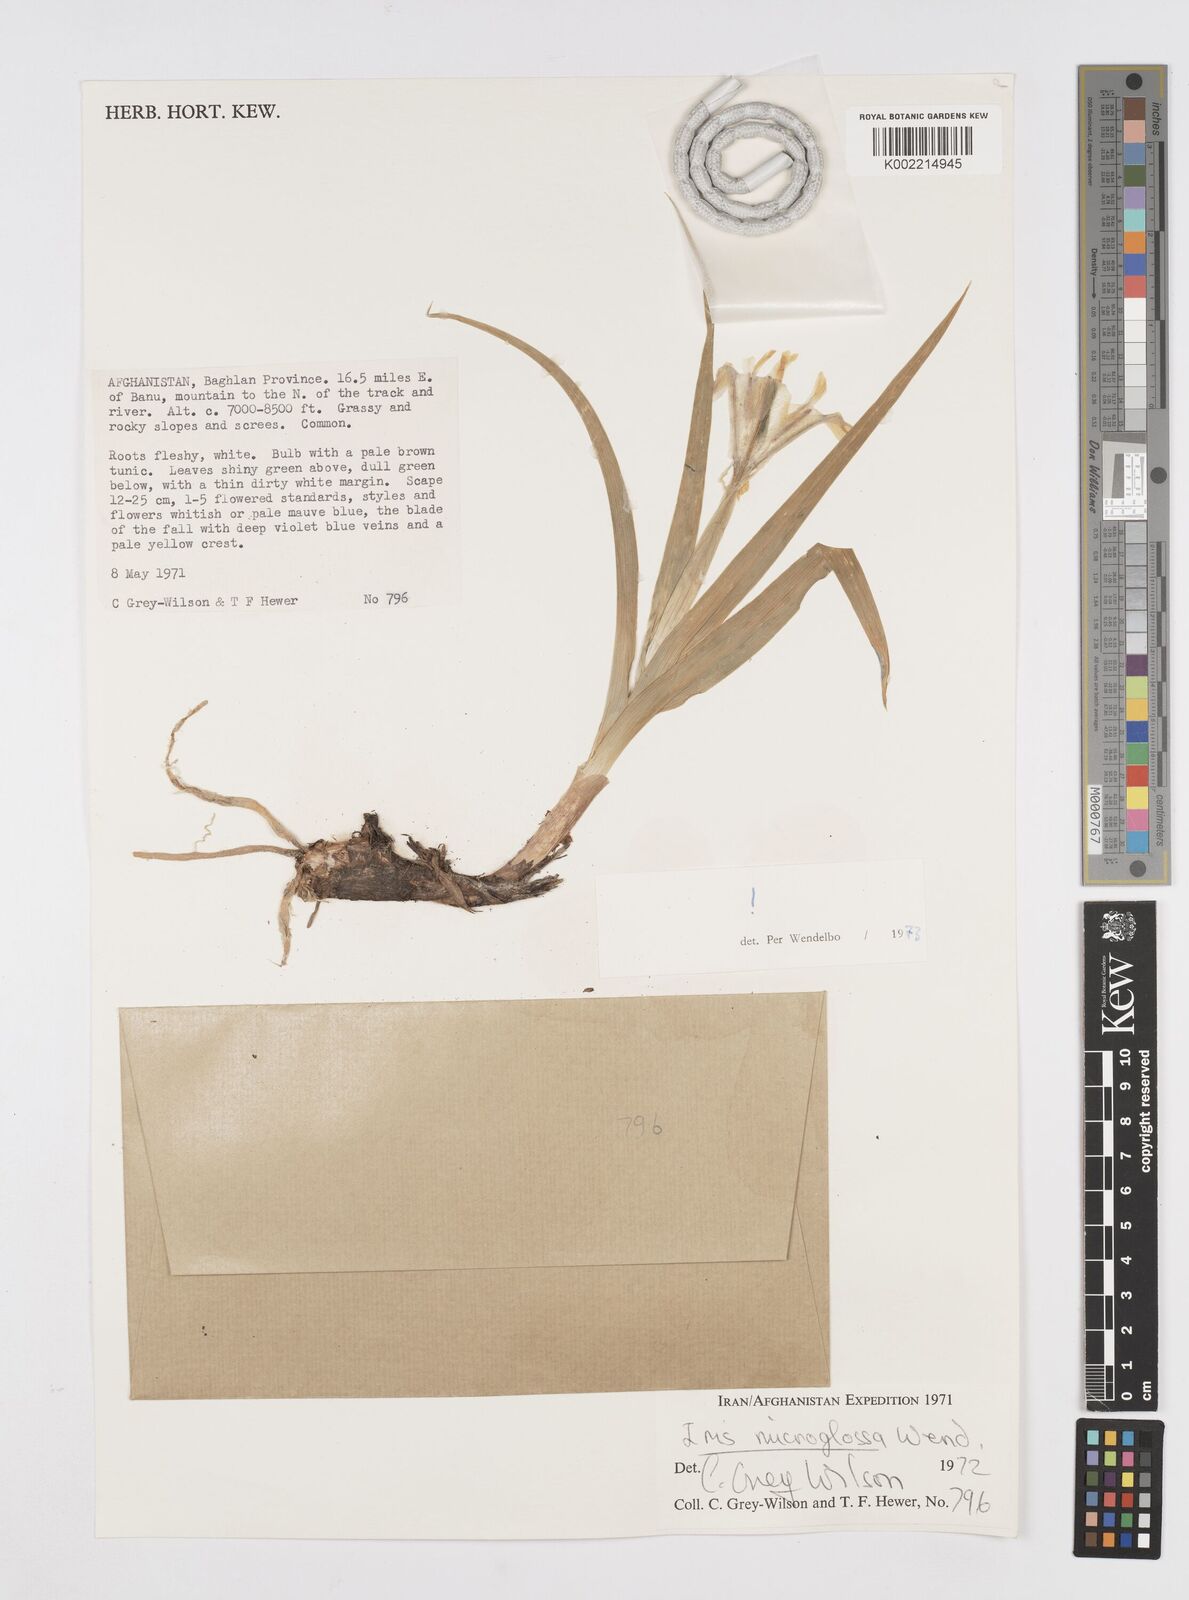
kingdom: Plantae
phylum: Tracheophyta
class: Liliopsida
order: Asparagales
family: Iridaceae
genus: Iris
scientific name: Iris microglossa
